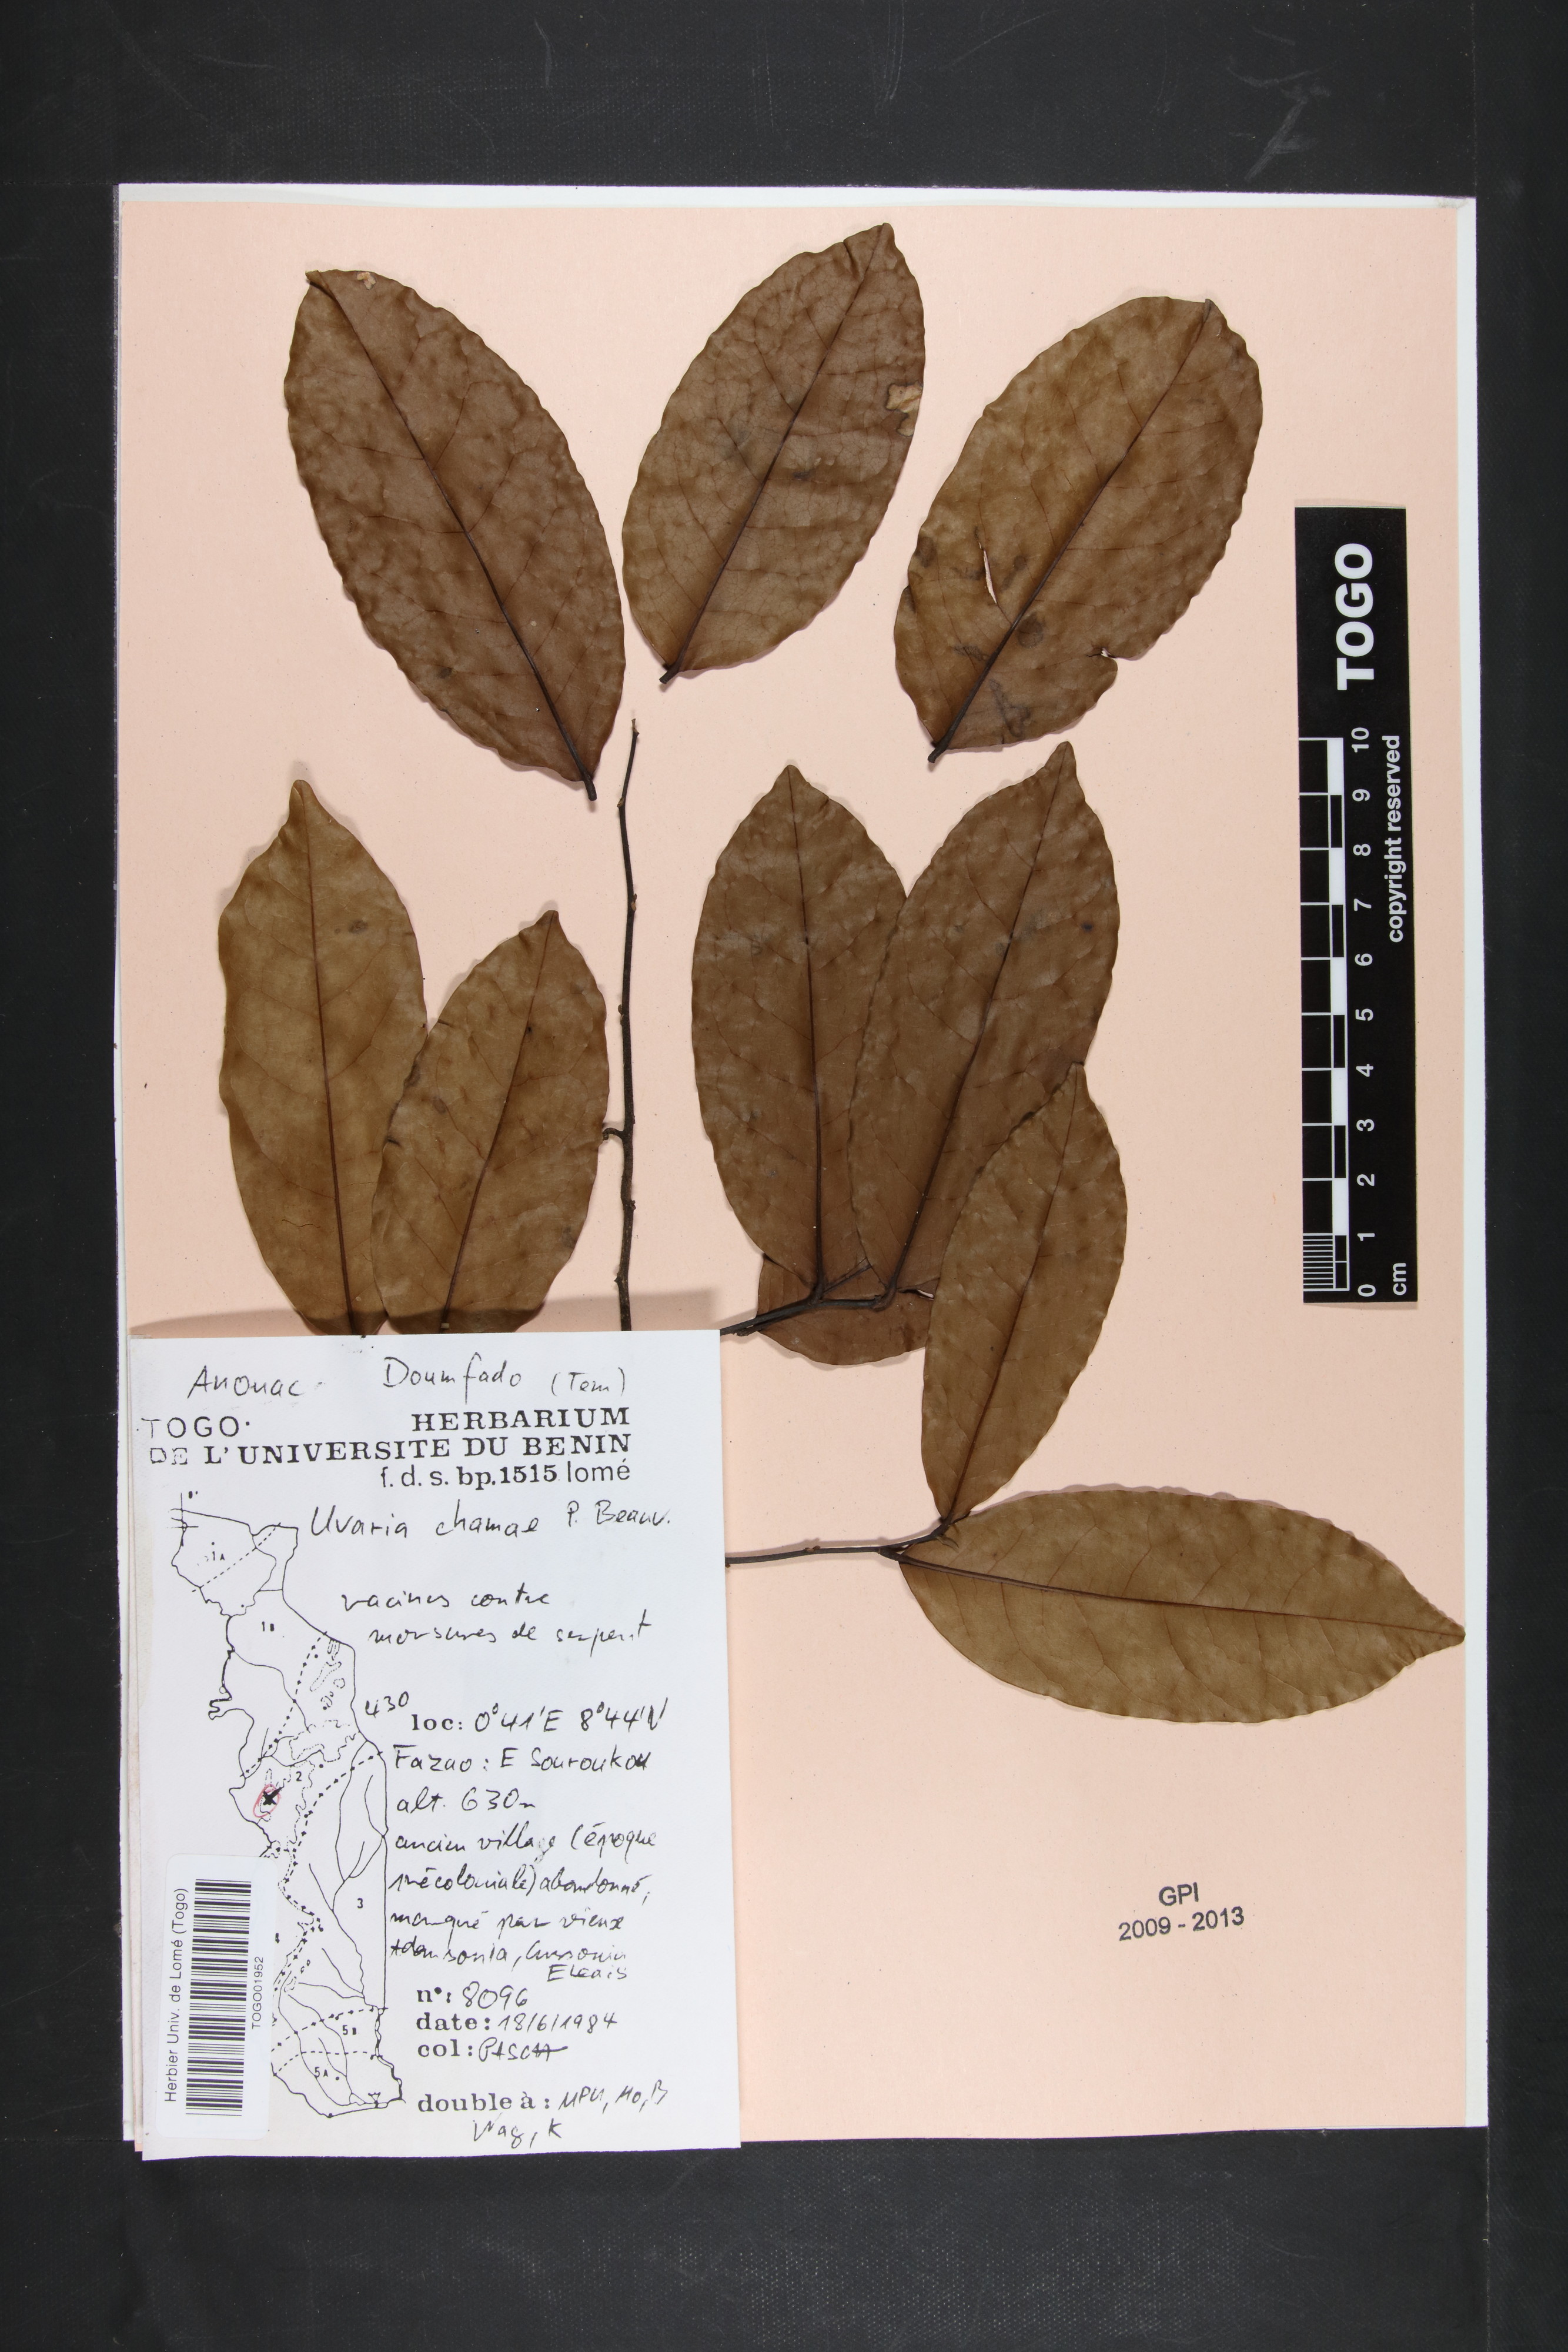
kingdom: Plantae
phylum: Tracheophyta
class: Magnoliopsida
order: Magnoliales
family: Annonaceae
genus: Uvaria
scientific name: Uvaria chamae
